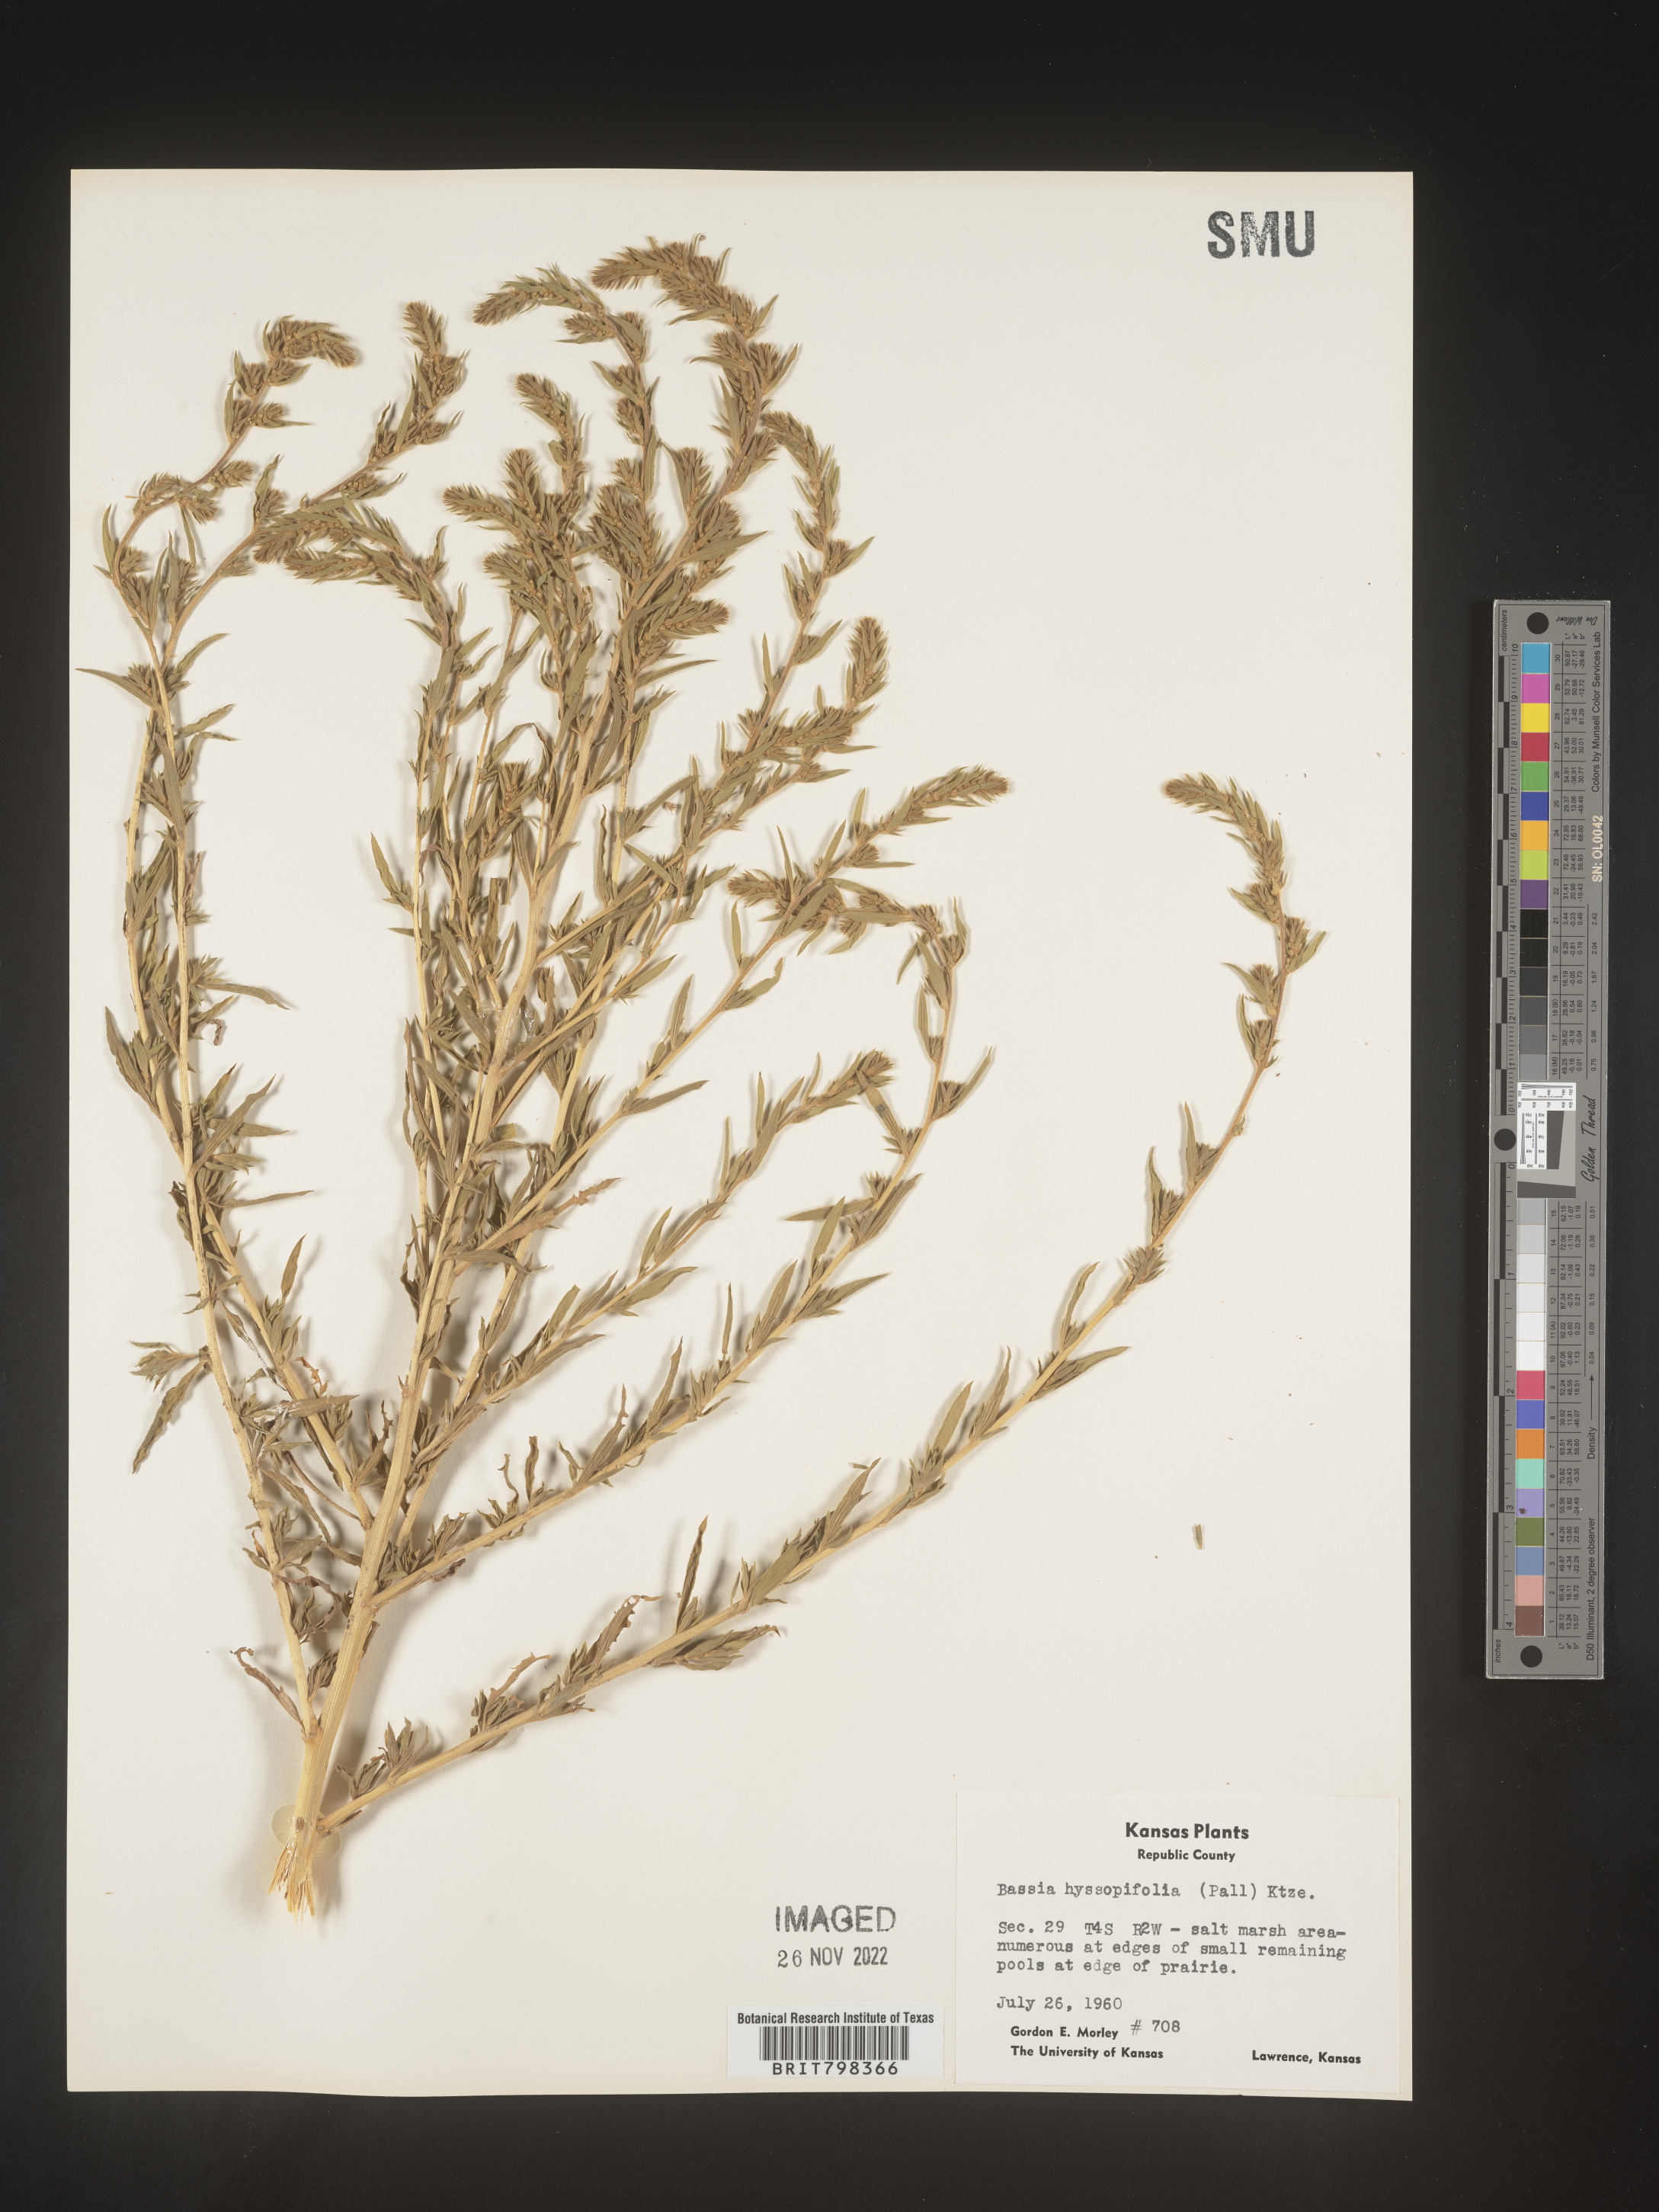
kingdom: Plantae
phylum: Tracheophyta
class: Magnoliopsida
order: Caryophyllales
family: Amaranthaceae
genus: Bassia
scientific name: Bassia
